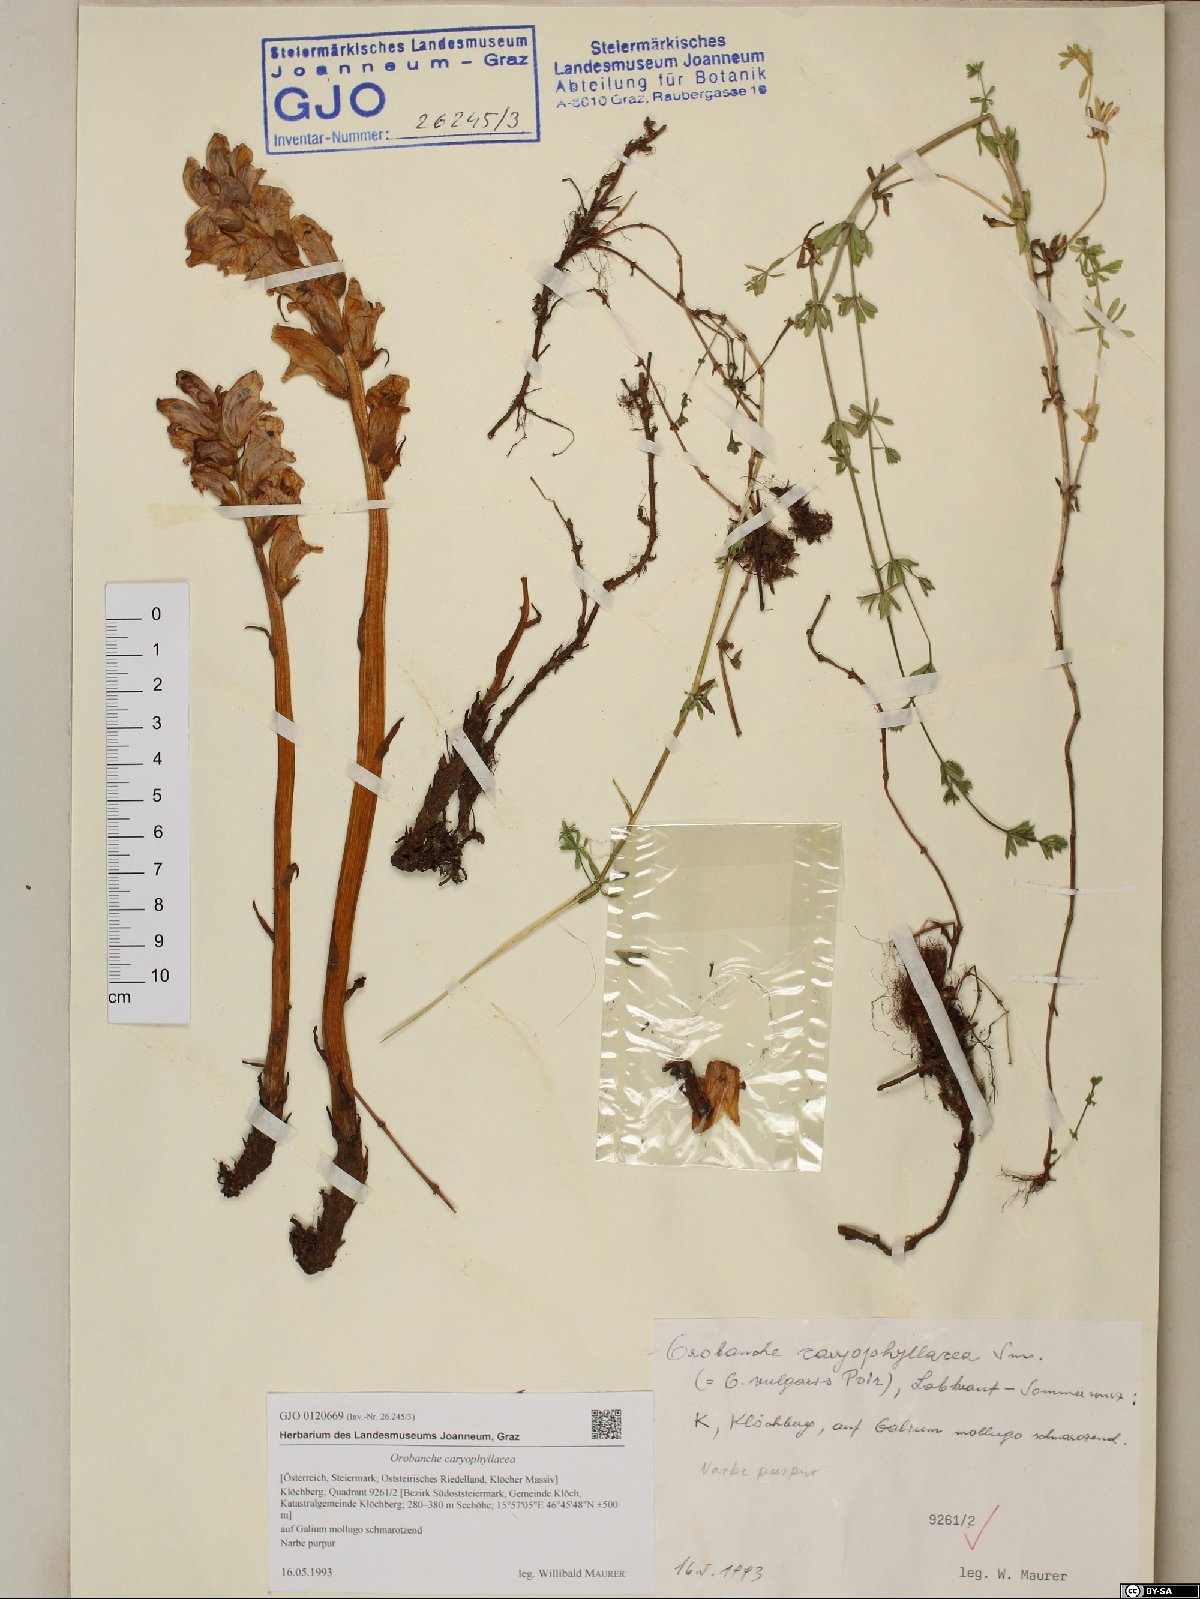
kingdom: Plantae
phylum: Tracheophyta
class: Magnoliopsida
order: Lamiales
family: Orobanchaceae
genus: Orobanche
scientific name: Orobanche caryophyllacea
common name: Bedstraw broomrape
